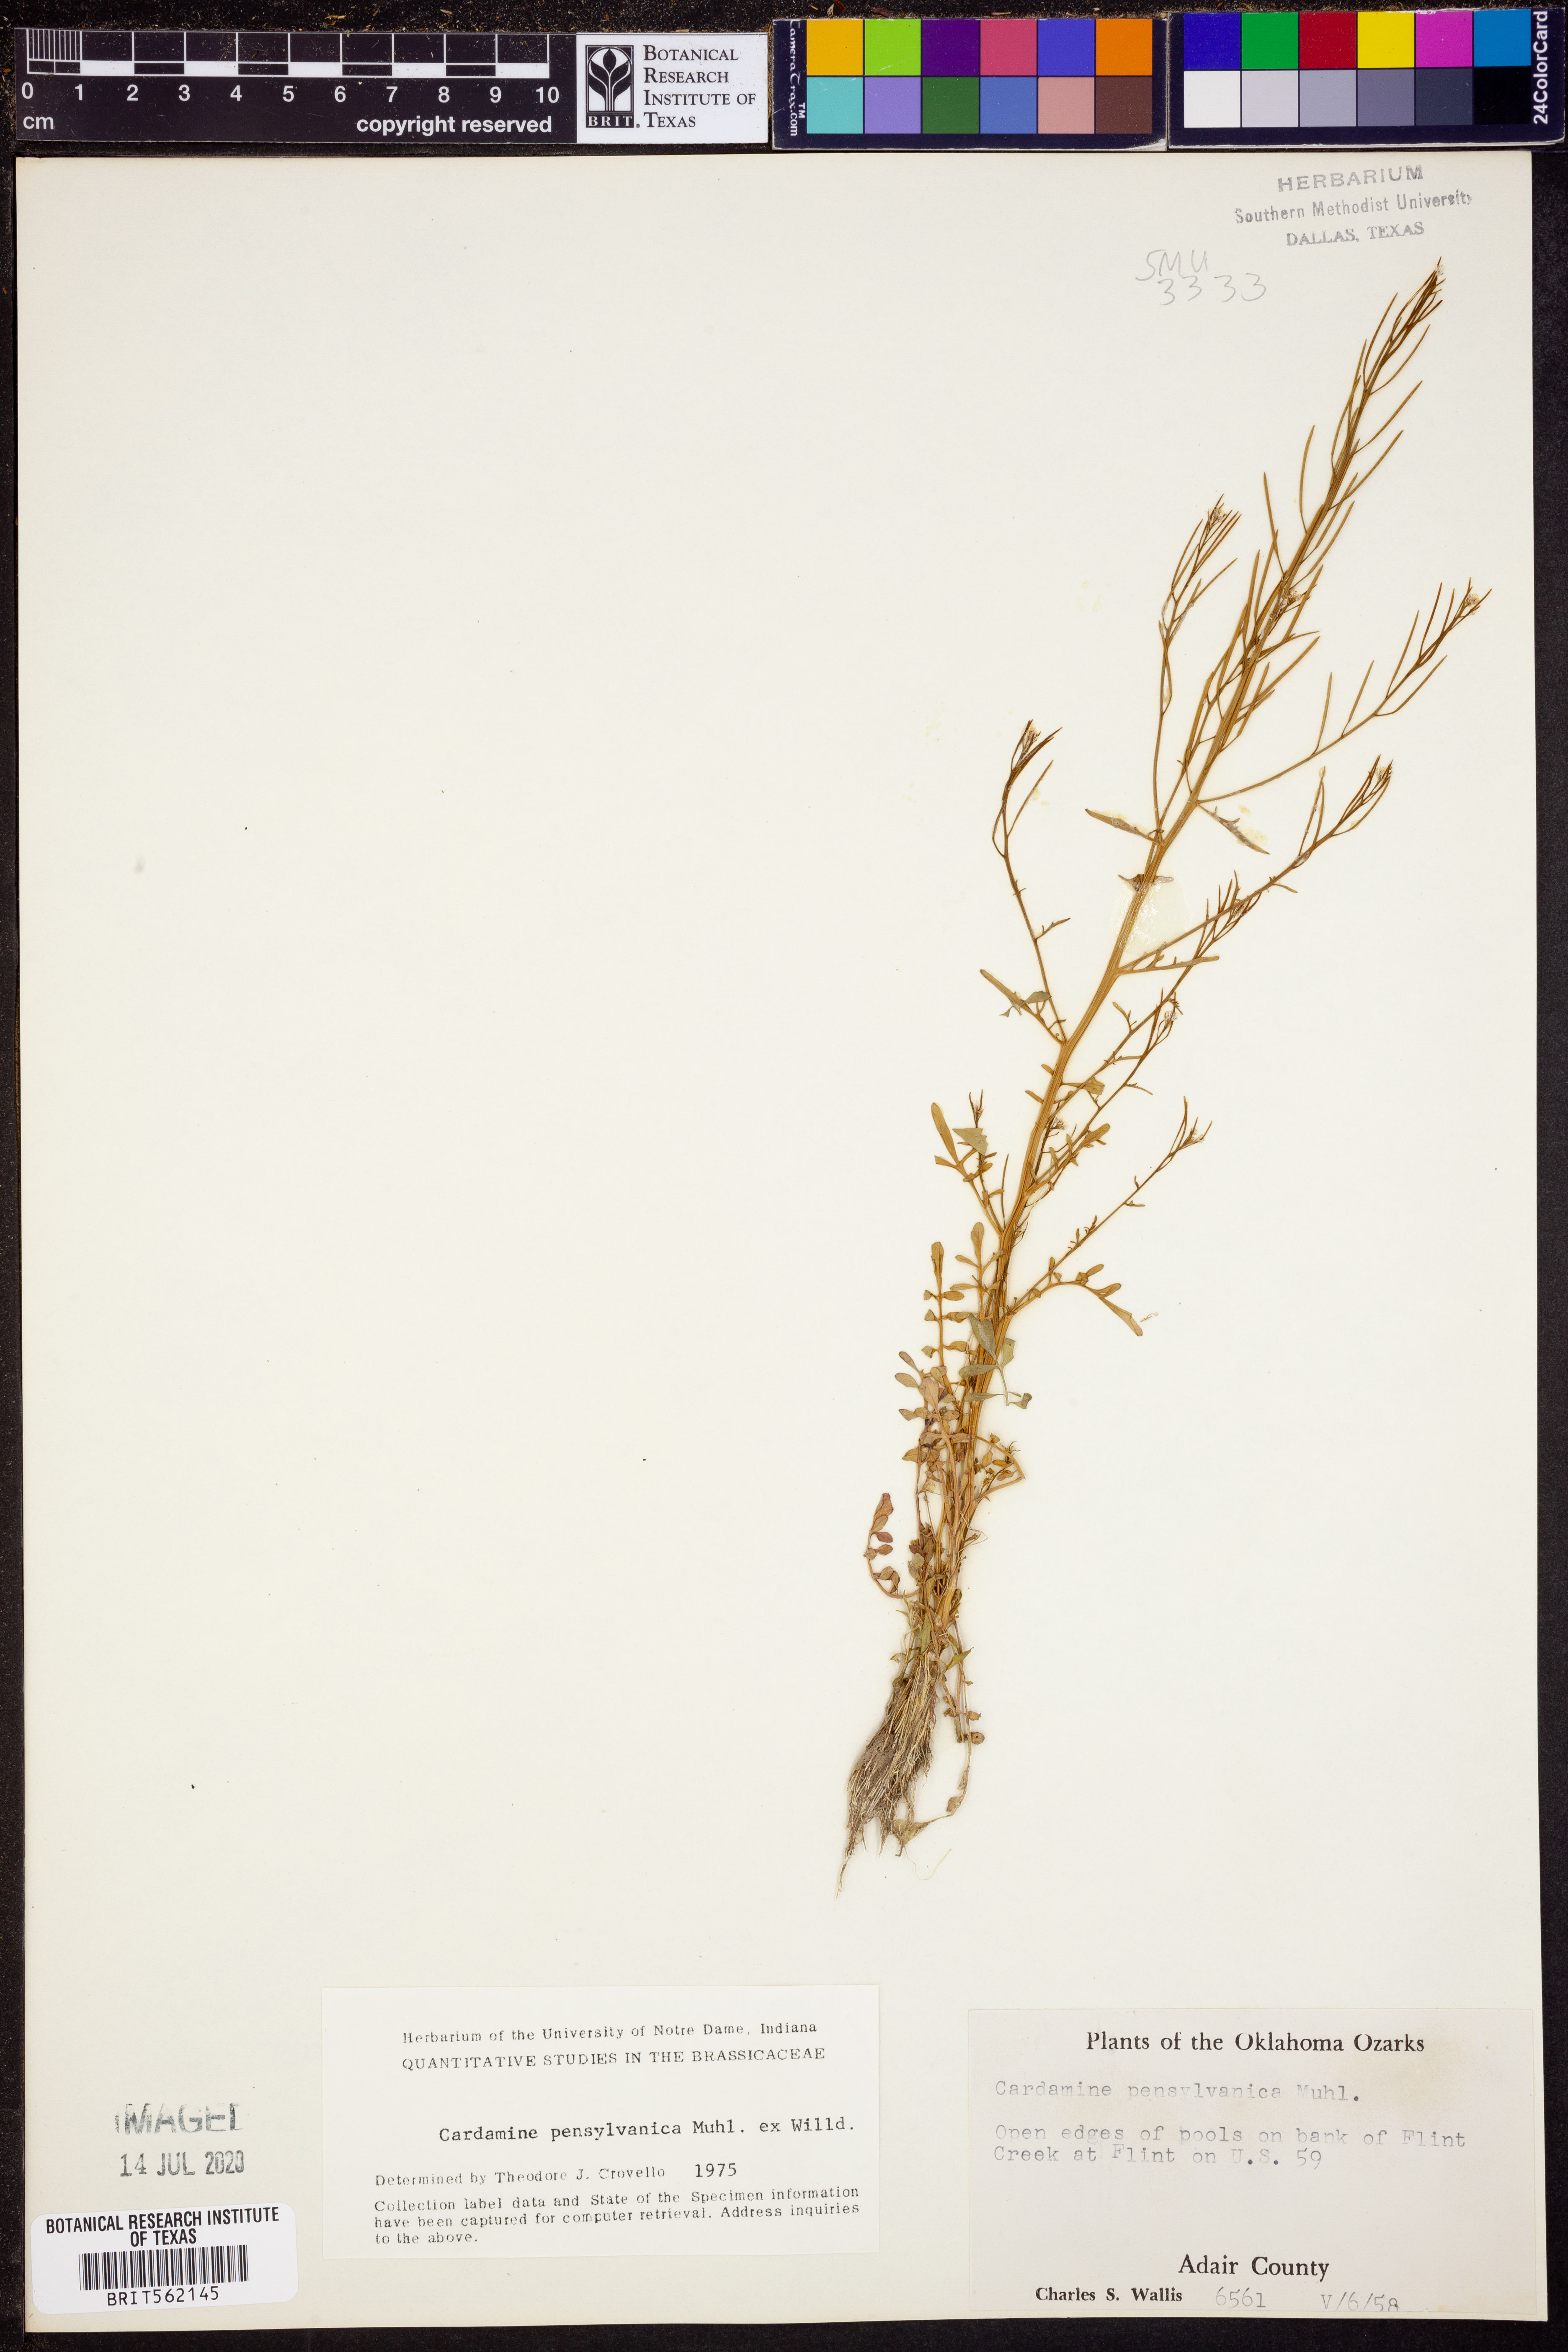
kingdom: Plantae
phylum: Tracheophyta
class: Magnoliopsida
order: Brassicales
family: Brassicaceae
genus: Cardamine
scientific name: Cardamine pensylvanica
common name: Pennsylvania bittercress
